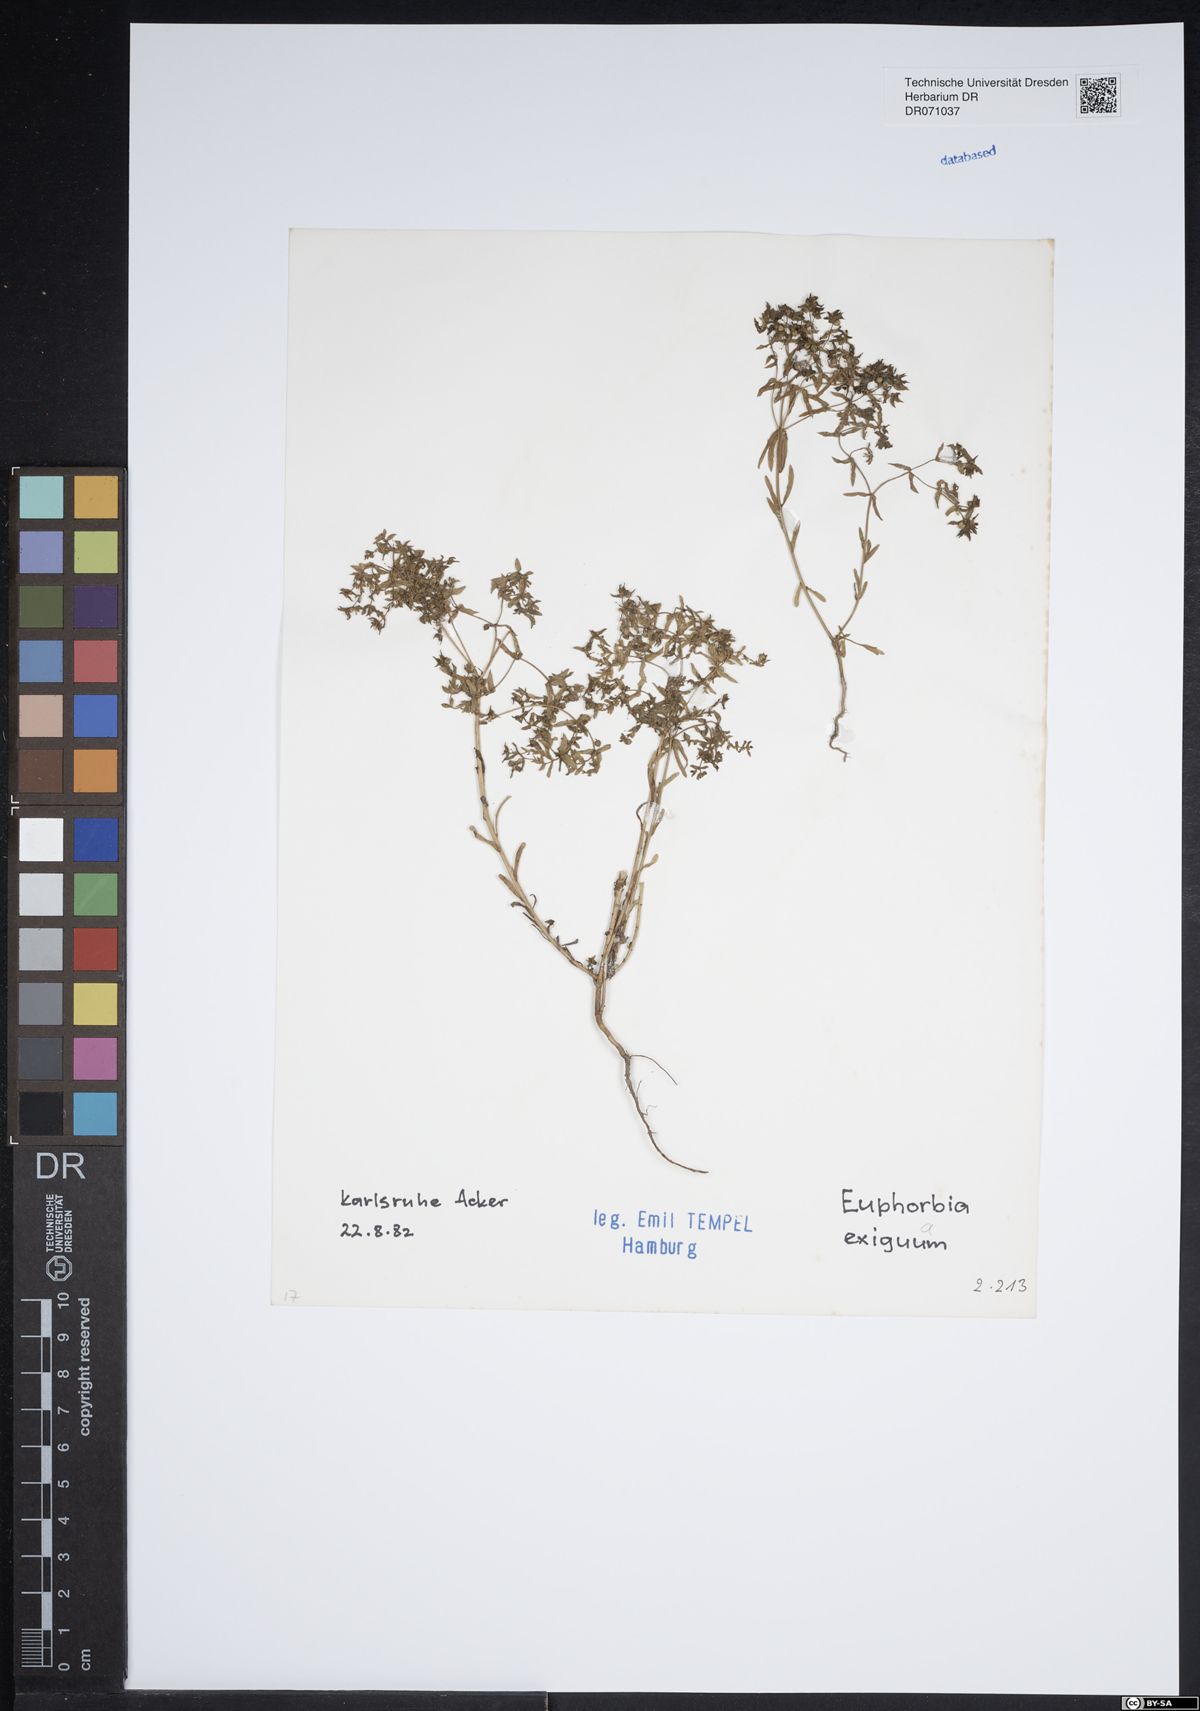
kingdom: Plantae
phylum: Tracheophyta
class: Magnoliopsida
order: Malpighiales
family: Euphorbiaceae
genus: Euphorbia
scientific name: Euphorbia exigua
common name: Dwarf spurge
